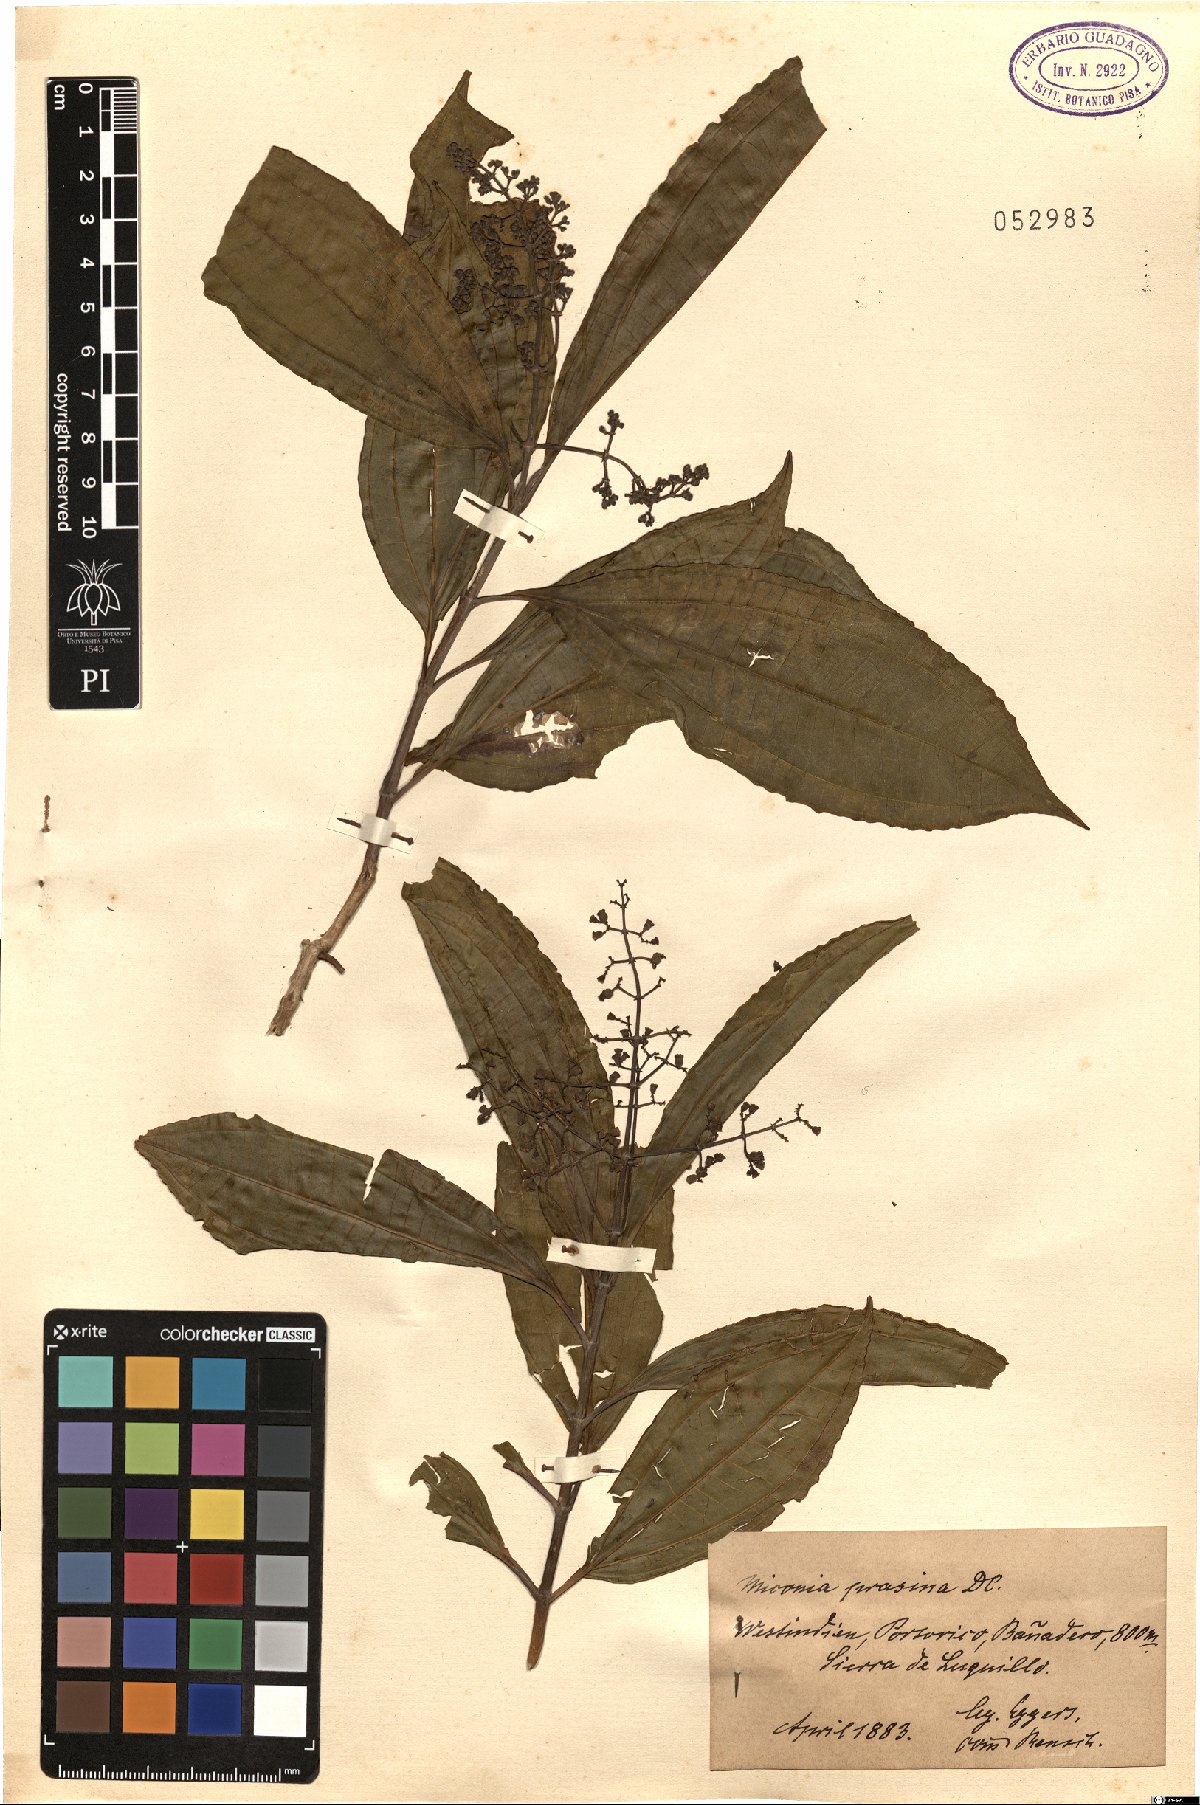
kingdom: Plantae
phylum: Tracheophyta
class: Magnoliopsida
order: Myrtales
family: Melastomataceae
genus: Miconia
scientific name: Miconia prasina
